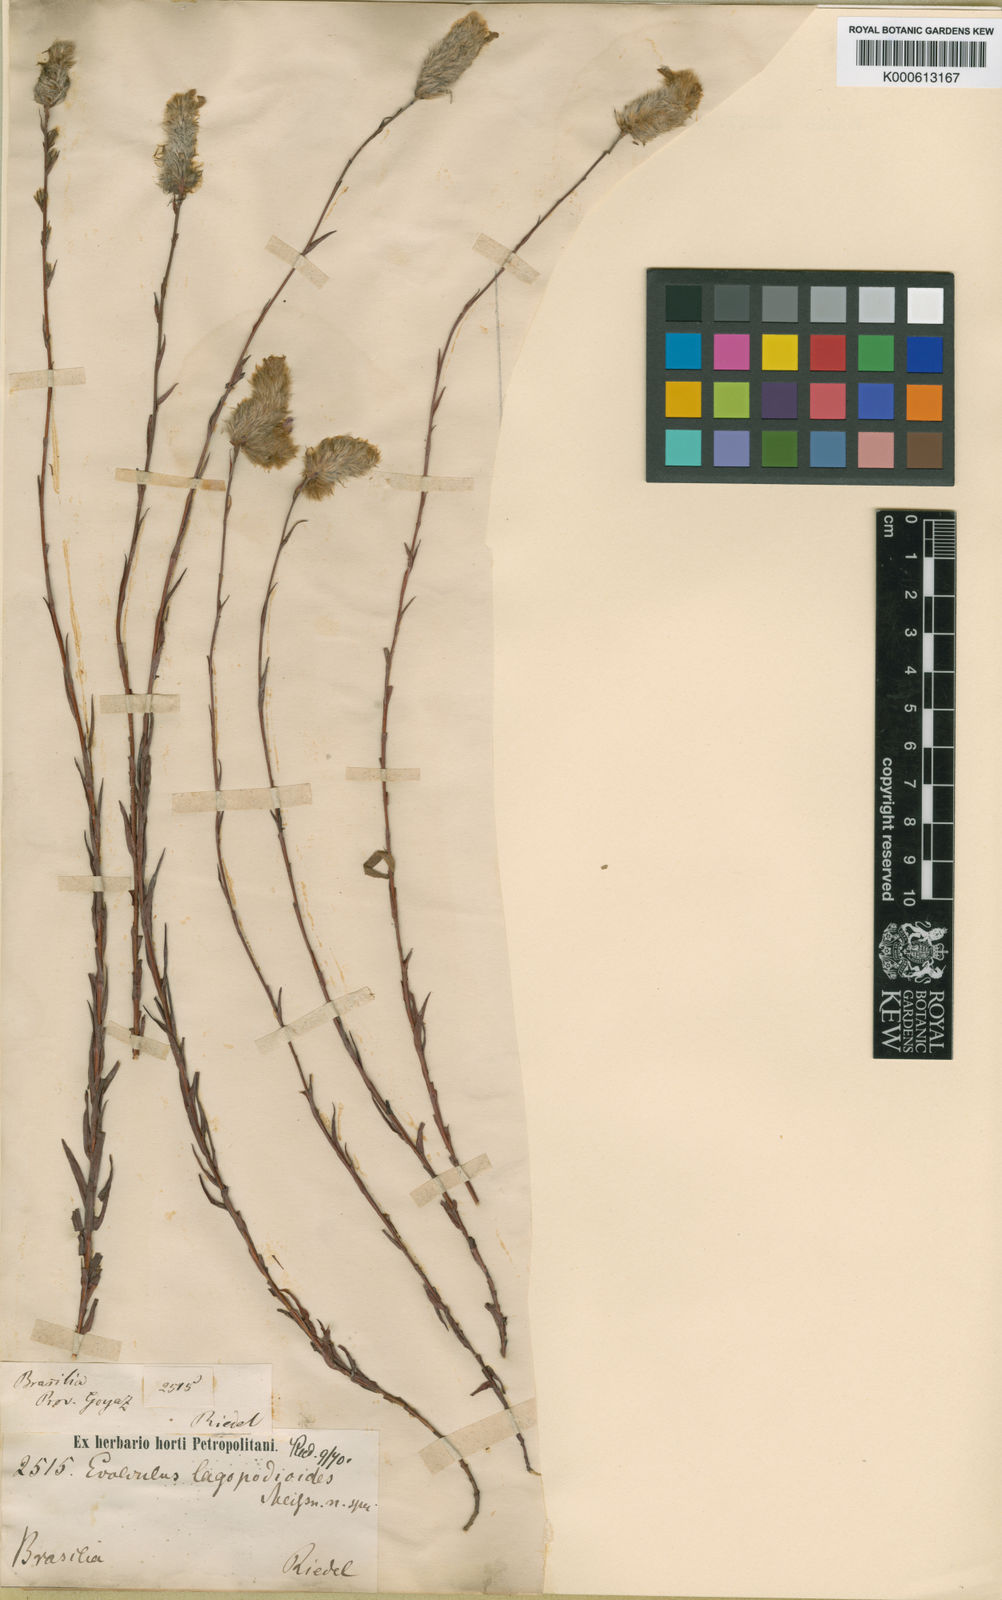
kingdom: Plantae
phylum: Tracheophyta
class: Magnoliopsida
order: Solanales
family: Convolvulaceae
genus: Evolvulus
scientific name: Evolvulus lagopodioides
